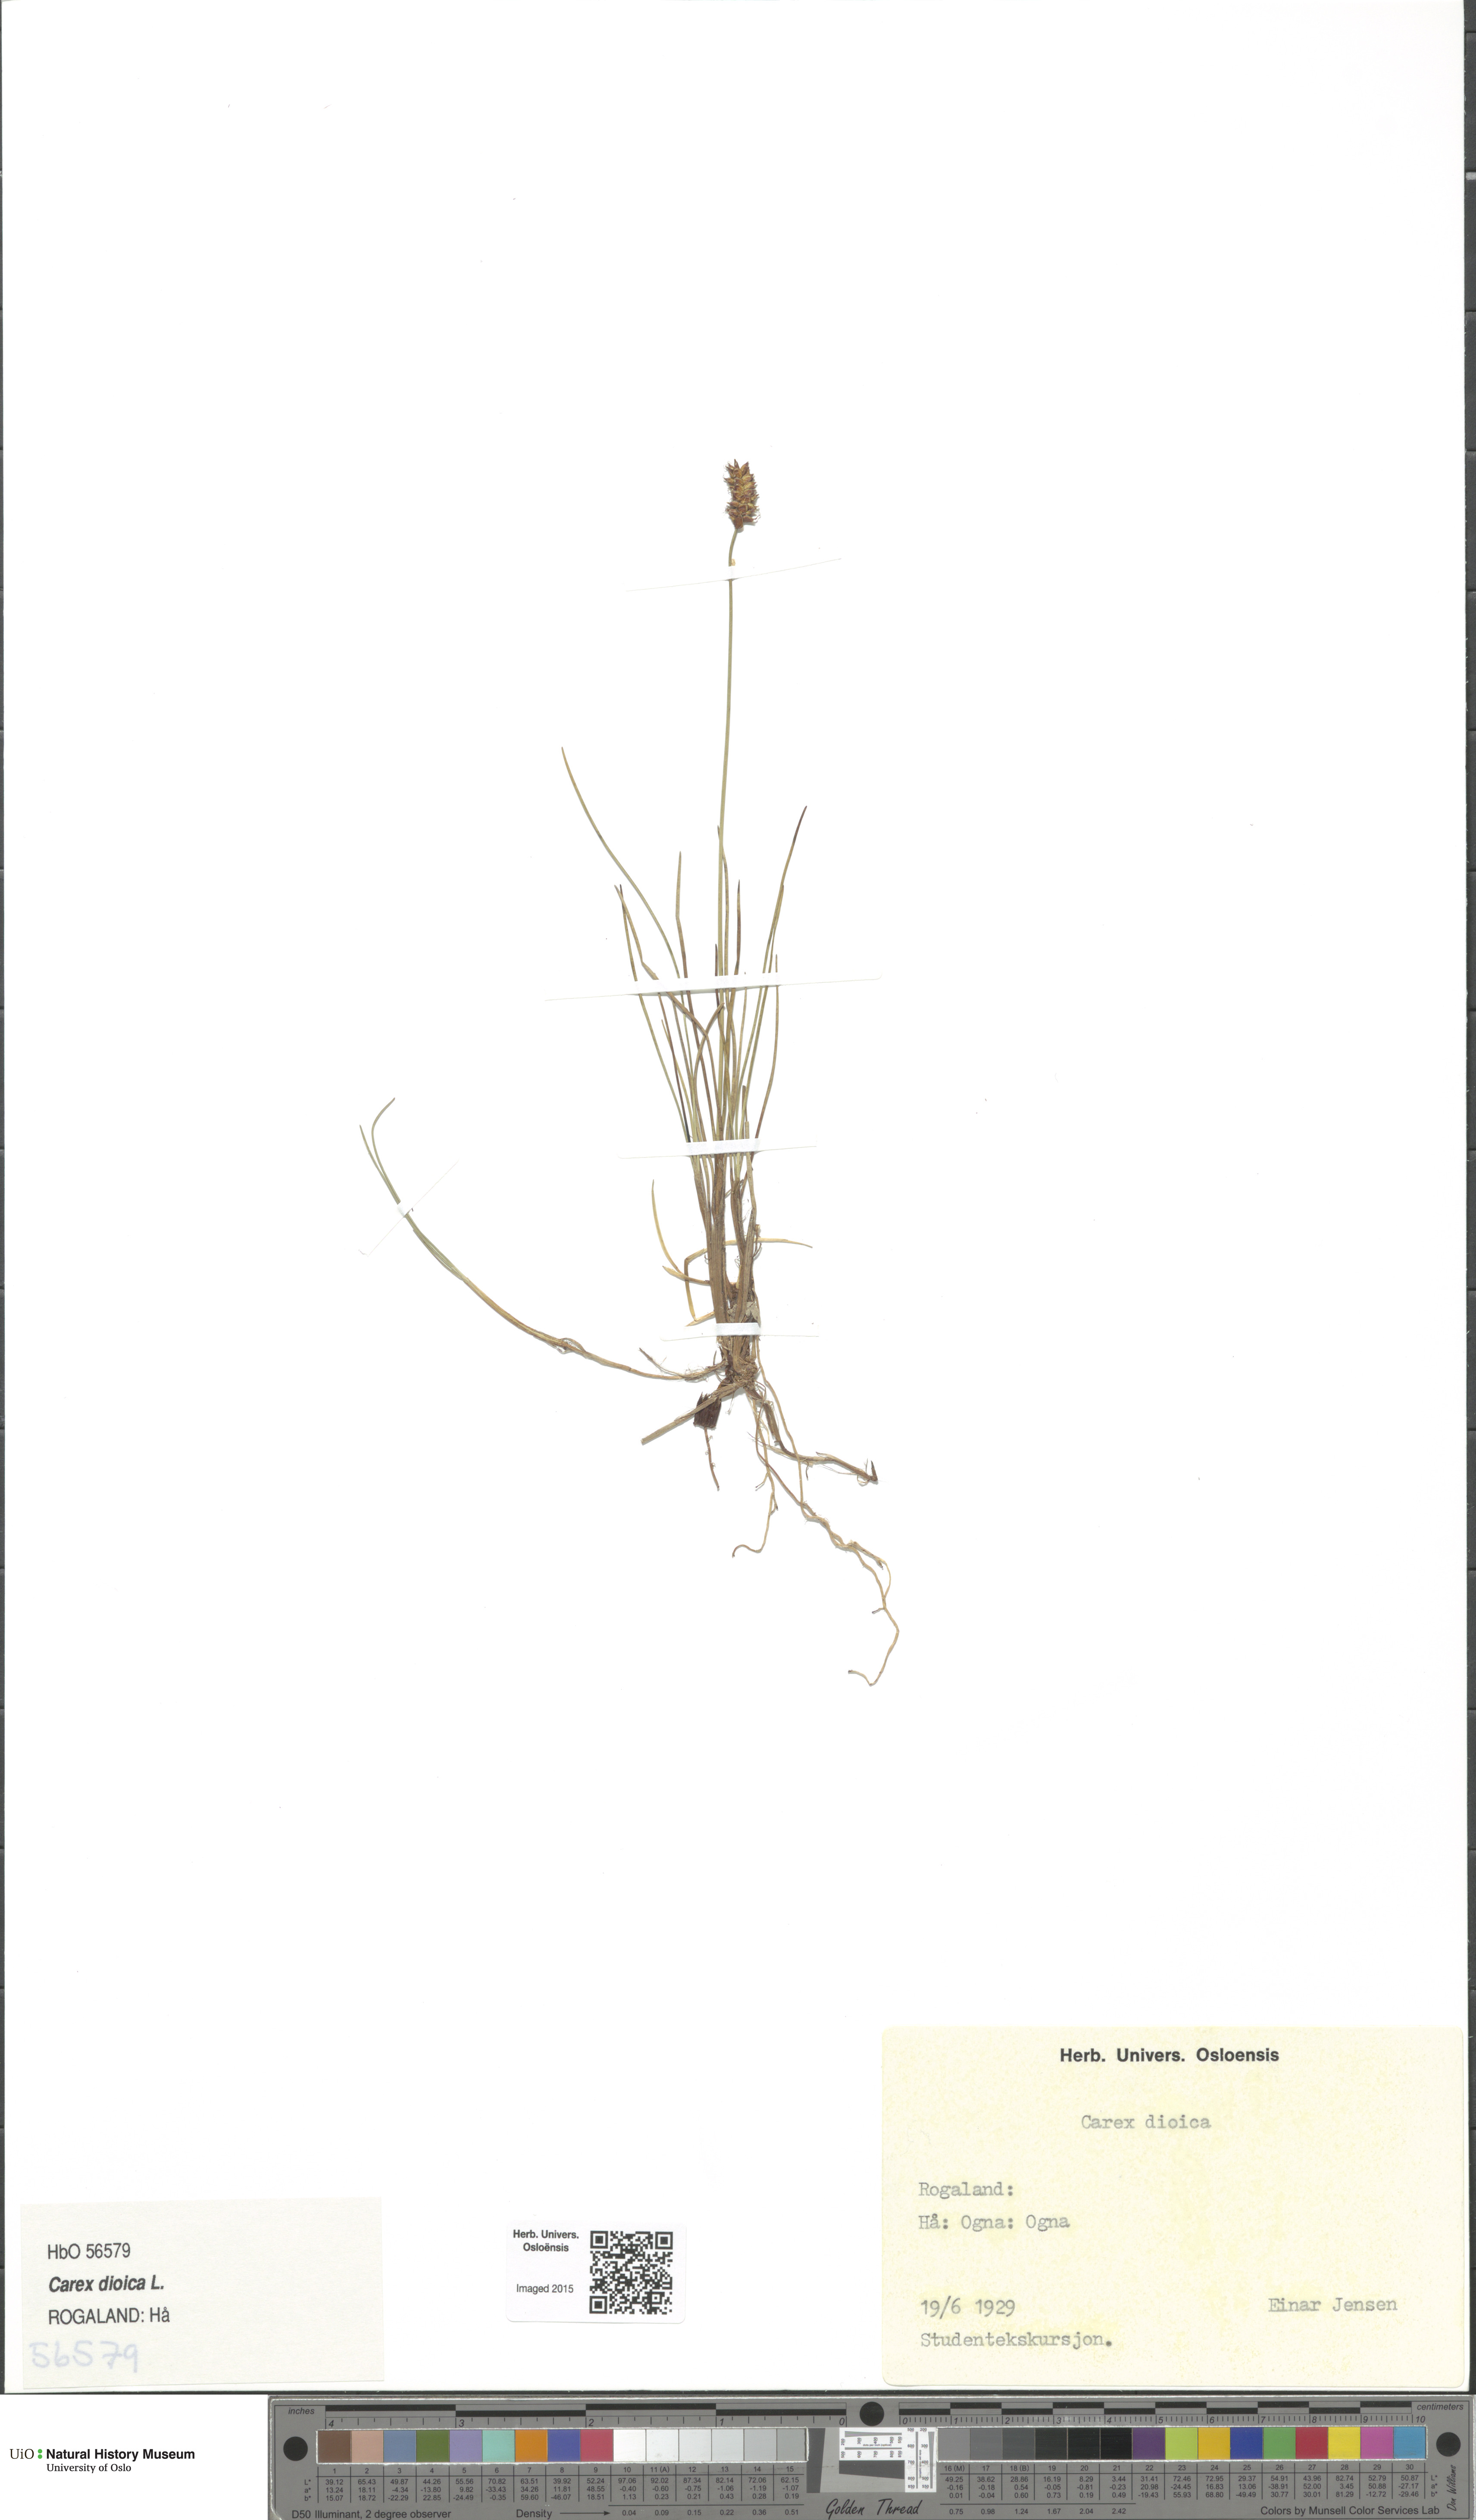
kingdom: Plantae
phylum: Tracheophyta
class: Liliopsida
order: Poales
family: Cyperaceae
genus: Carex
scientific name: Carex dioica
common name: Dioecious sedge
